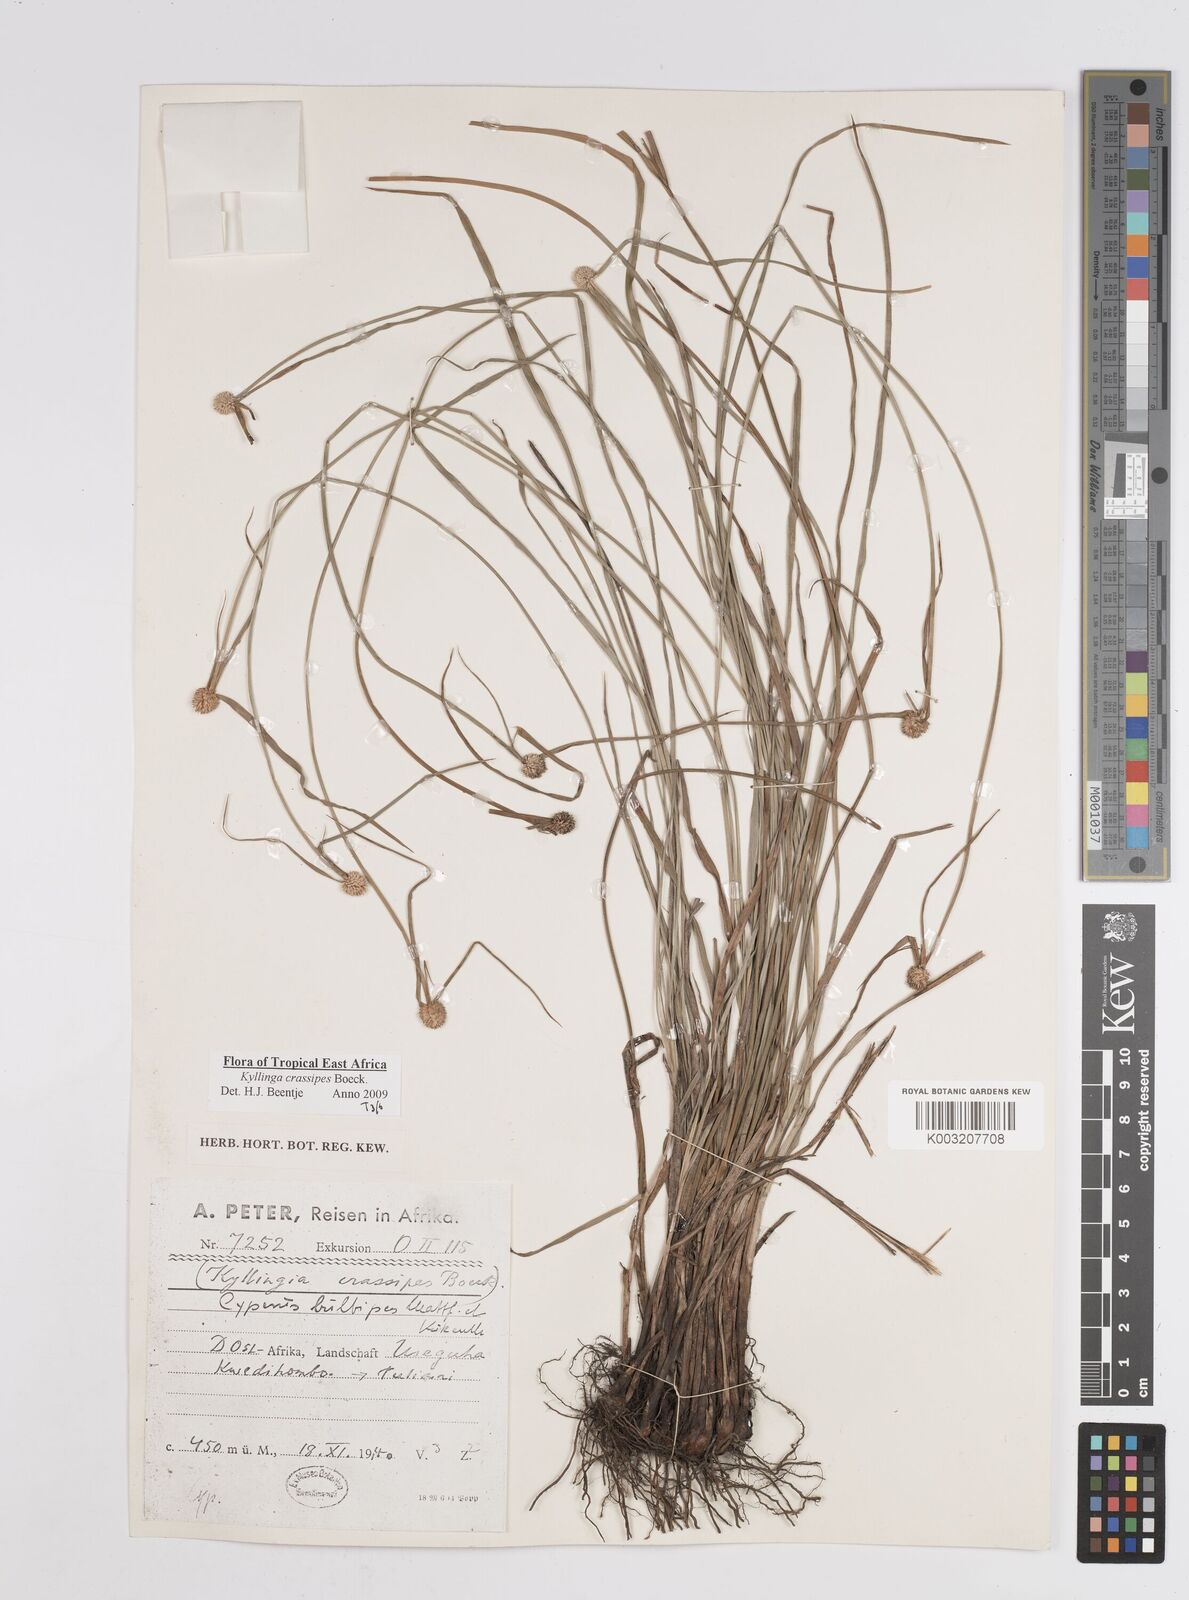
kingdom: Plantae
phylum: Tracheophyta
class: Liliopsida
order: Poales
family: Cyperaceae
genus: Cyperus
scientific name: Cyperus
